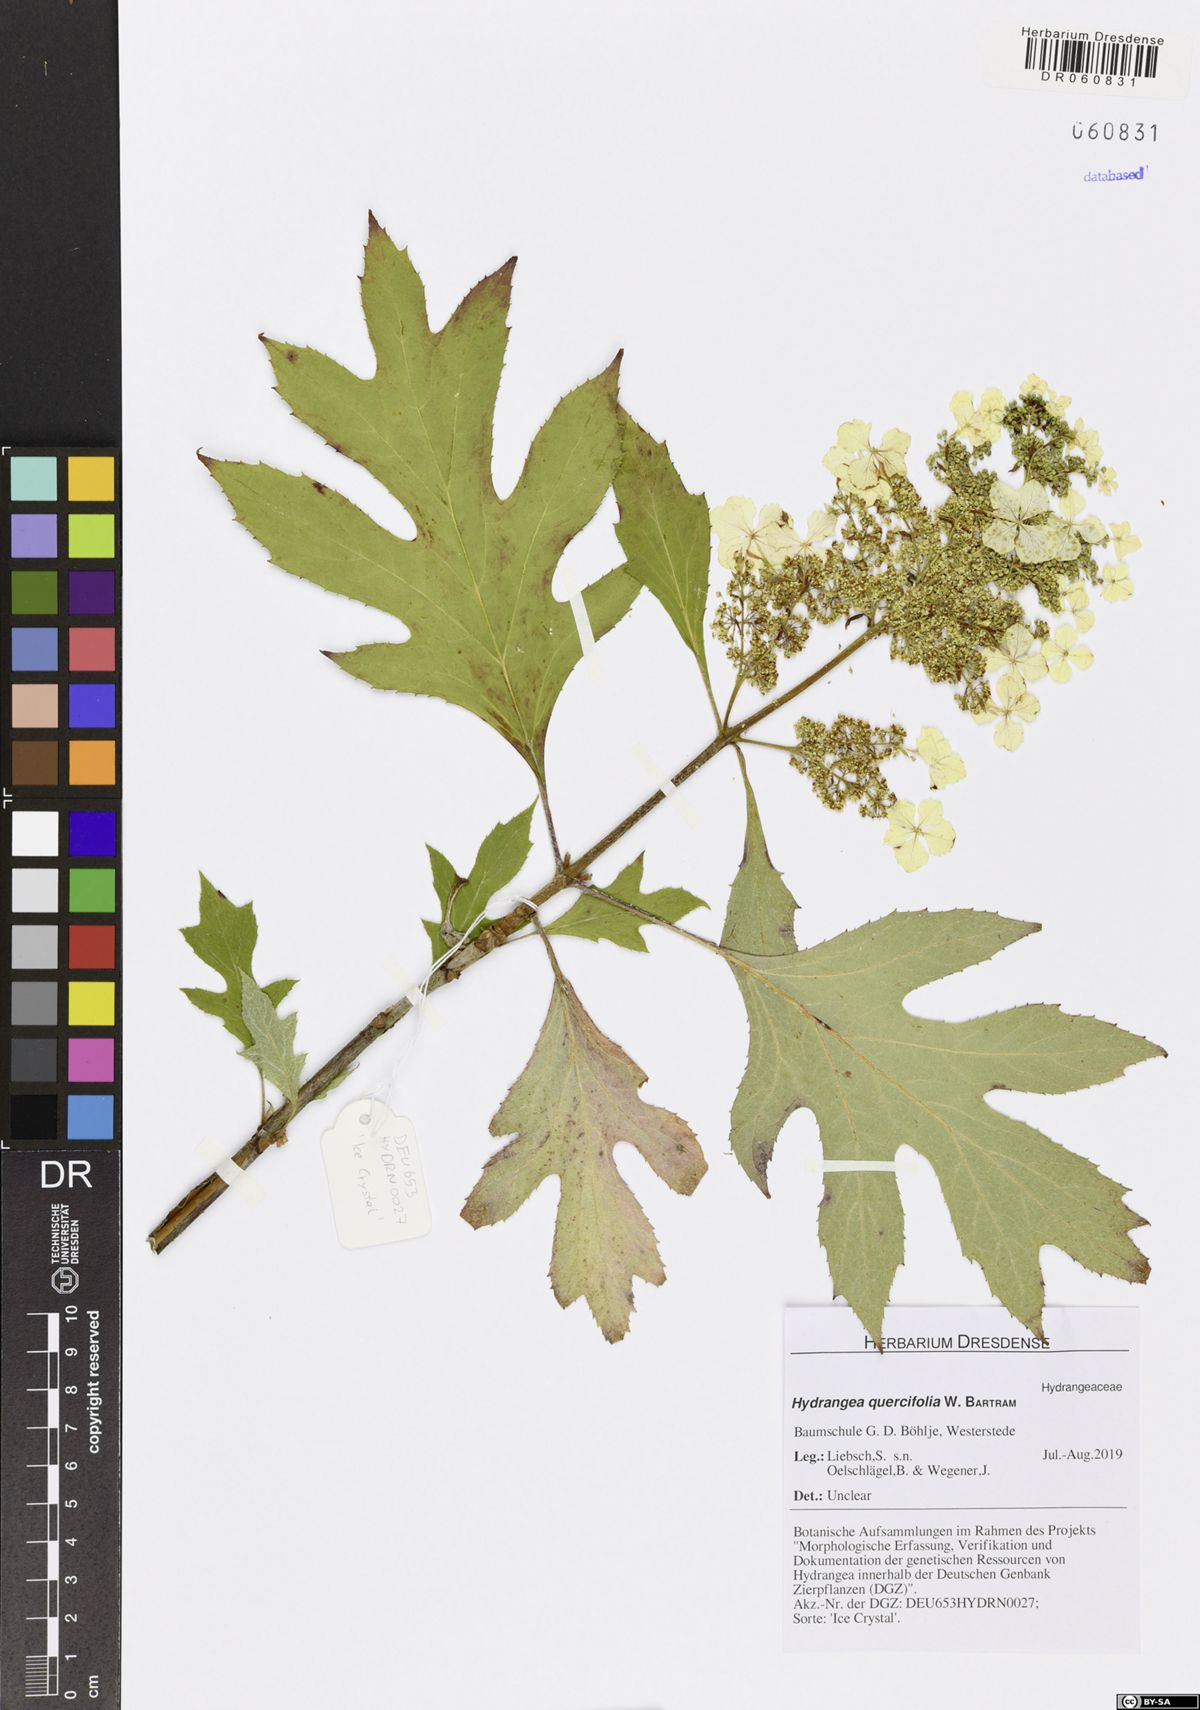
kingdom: Plantae
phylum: Tracheophyta
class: Magnoliopsida
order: Cornales
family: Hydrangeaceae
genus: Hydrangea
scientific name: Hydrangea quercifolia
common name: Oak-leaf hydrangea
